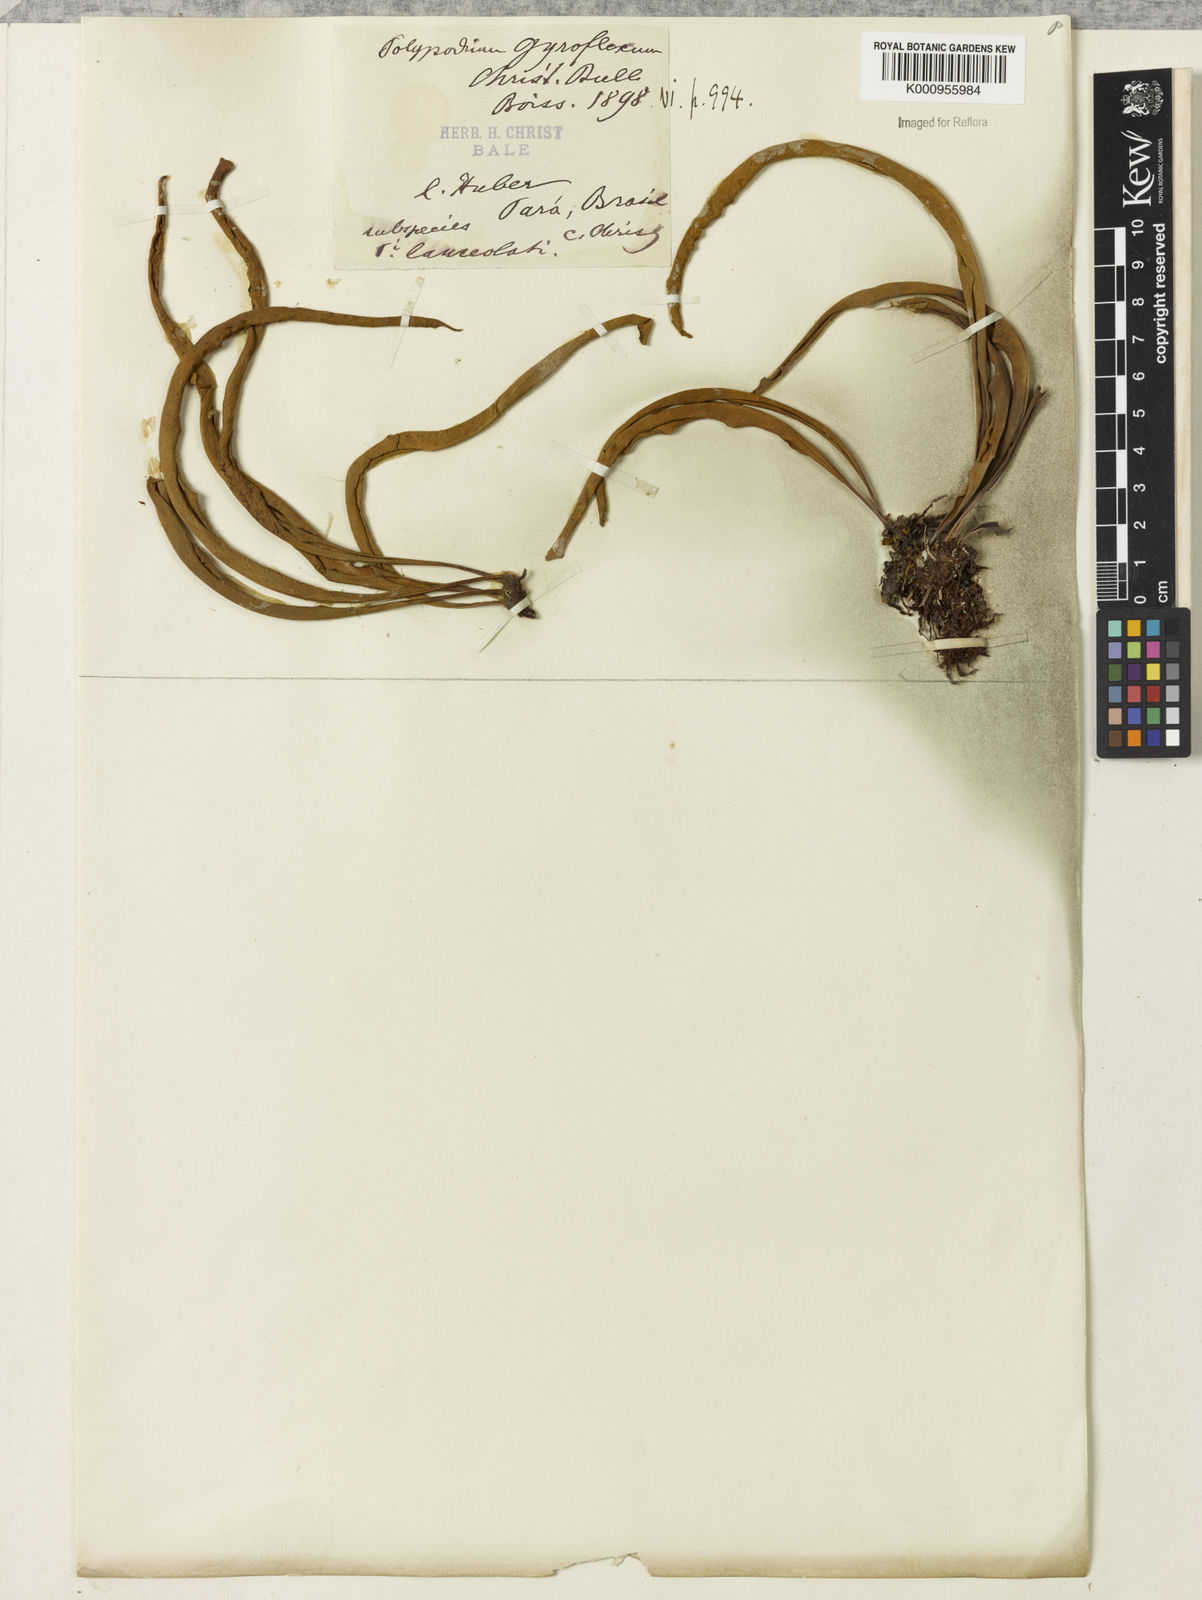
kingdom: Plantae
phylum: Tracheophyta
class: Polypodiopsida
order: Polypodiales
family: Polypodiaceae
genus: Pleopeltis
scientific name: Pleopeltis gyroflexa
